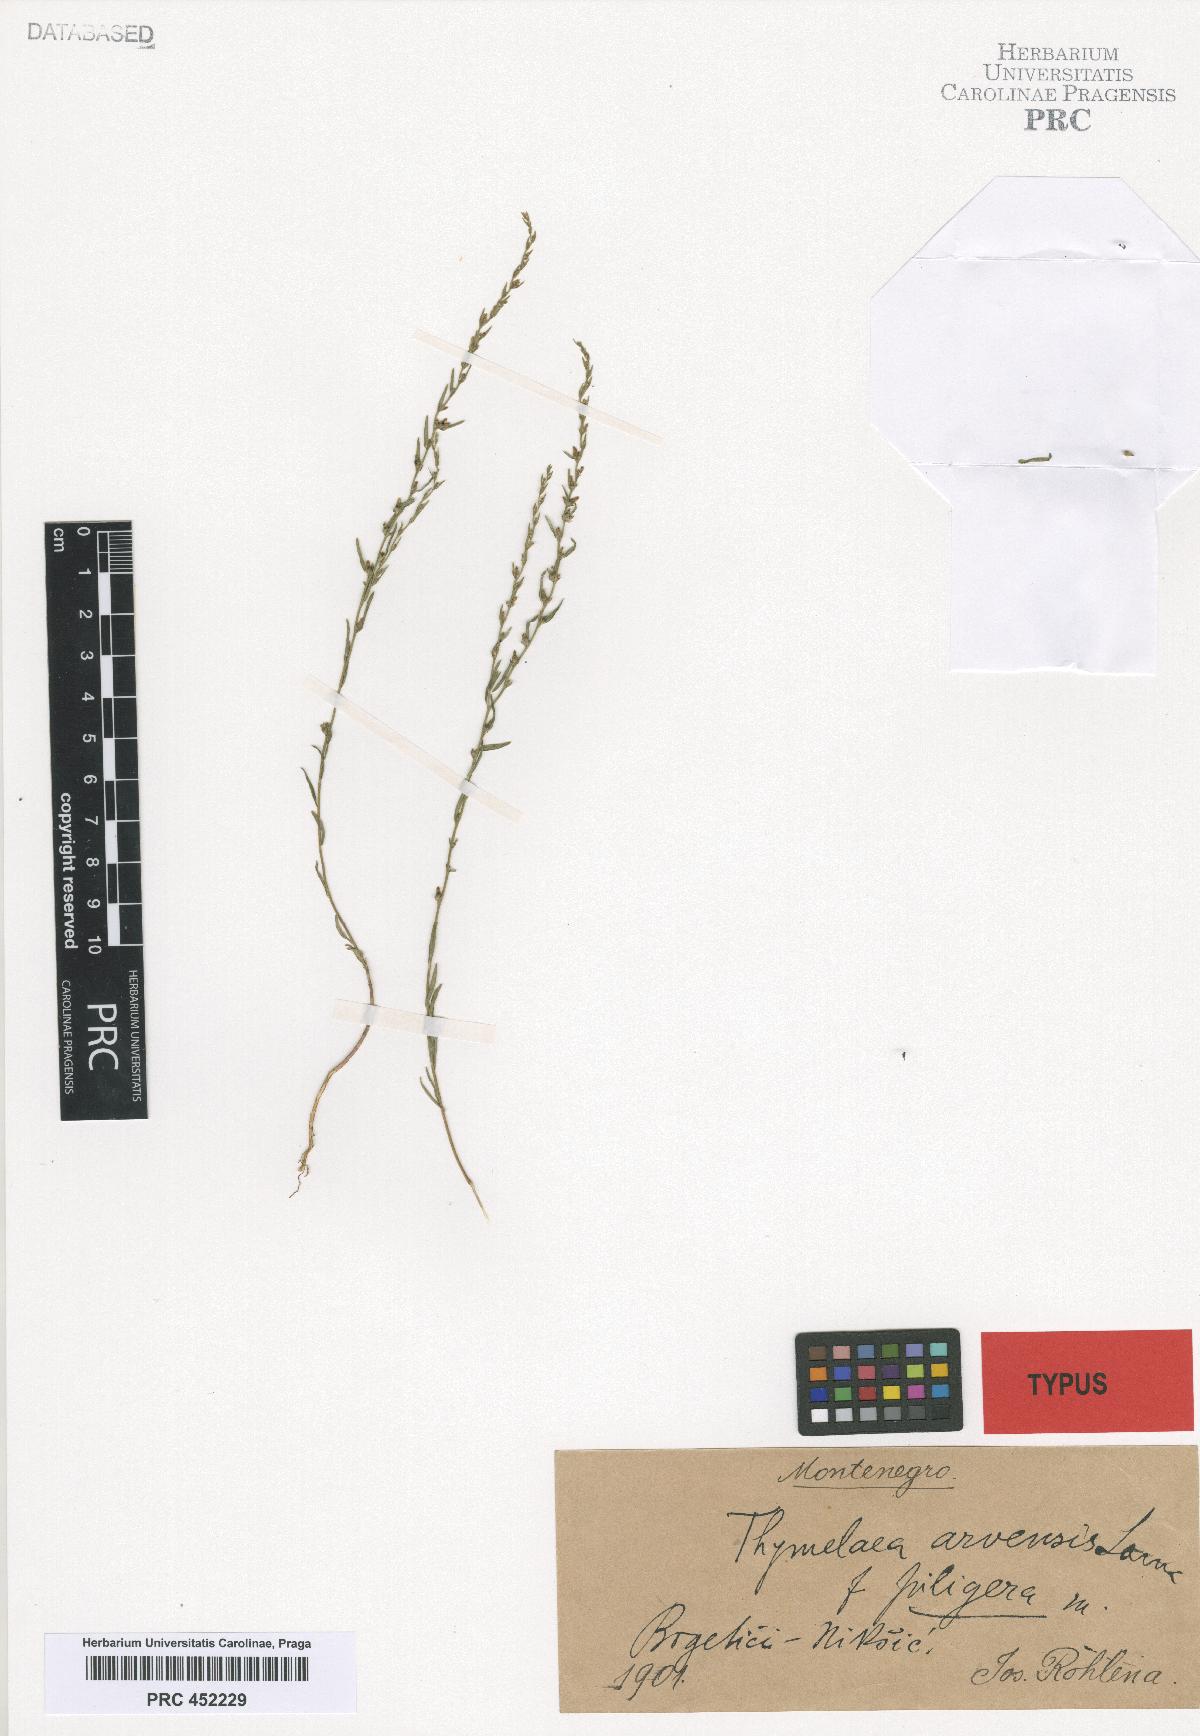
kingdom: Plantae
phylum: Tracheophyta
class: Magnoliopsida
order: Malvales
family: Thymelaeaceae
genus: Thymelaea
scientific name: Thymelaea gussonei
